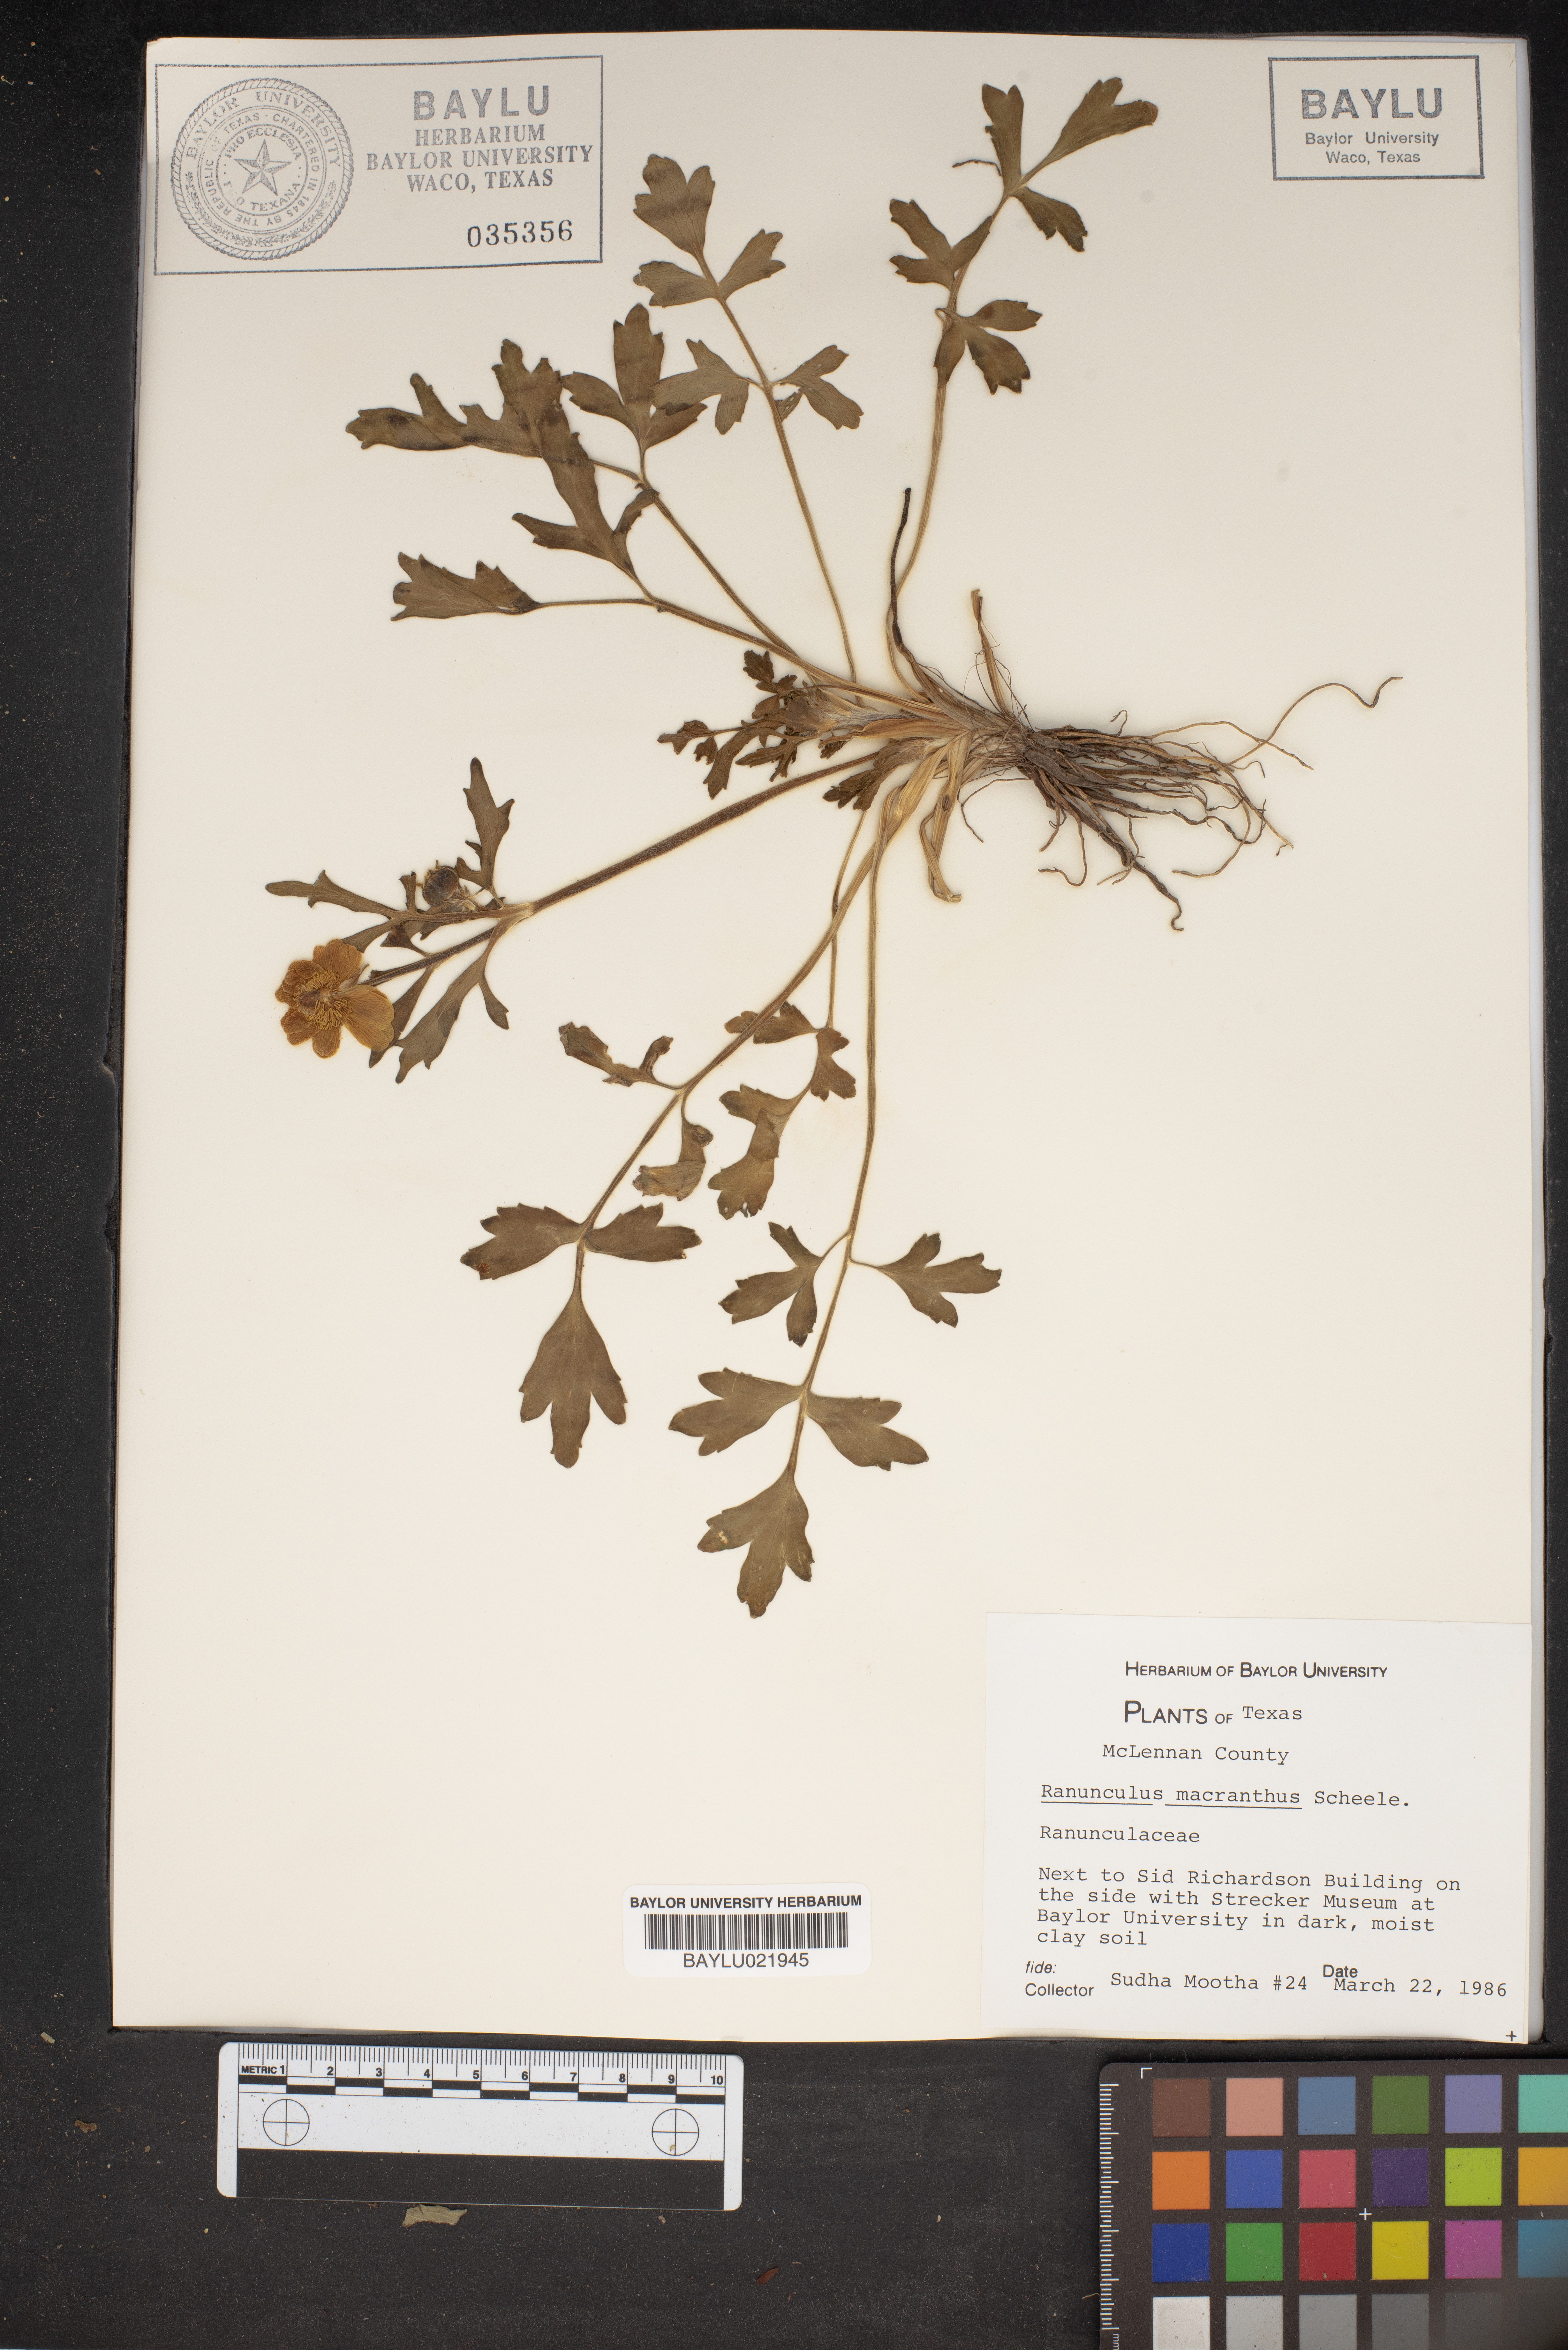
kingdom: Plantae
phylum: Tracheophyta
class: Magnoliopsida
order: Ranunculales
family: Ranunculaceae
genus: Ranunculus
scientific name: Ranunculus macranthus
